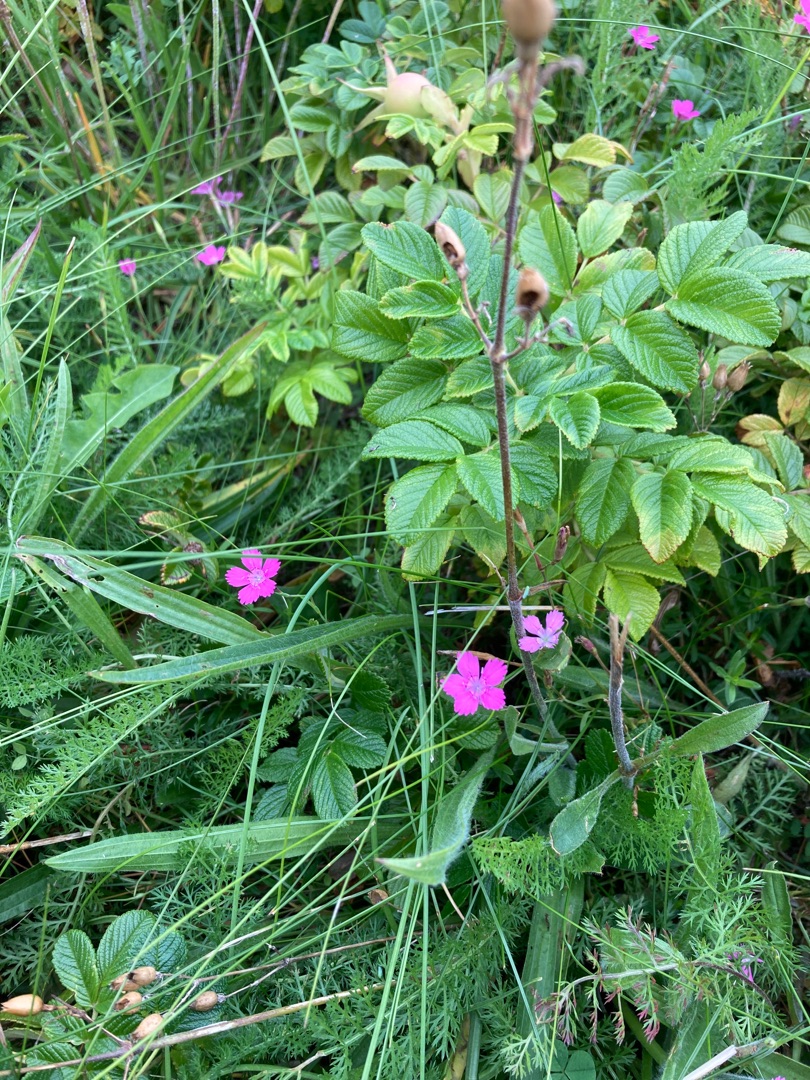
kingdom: Plantae
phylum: Tracheophyta
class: Magnoliopsida
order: Caryophyllales
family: Caryophyllaceae
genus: Dianthus
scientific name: Dianthus deltoides
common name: Bakke-nellike
